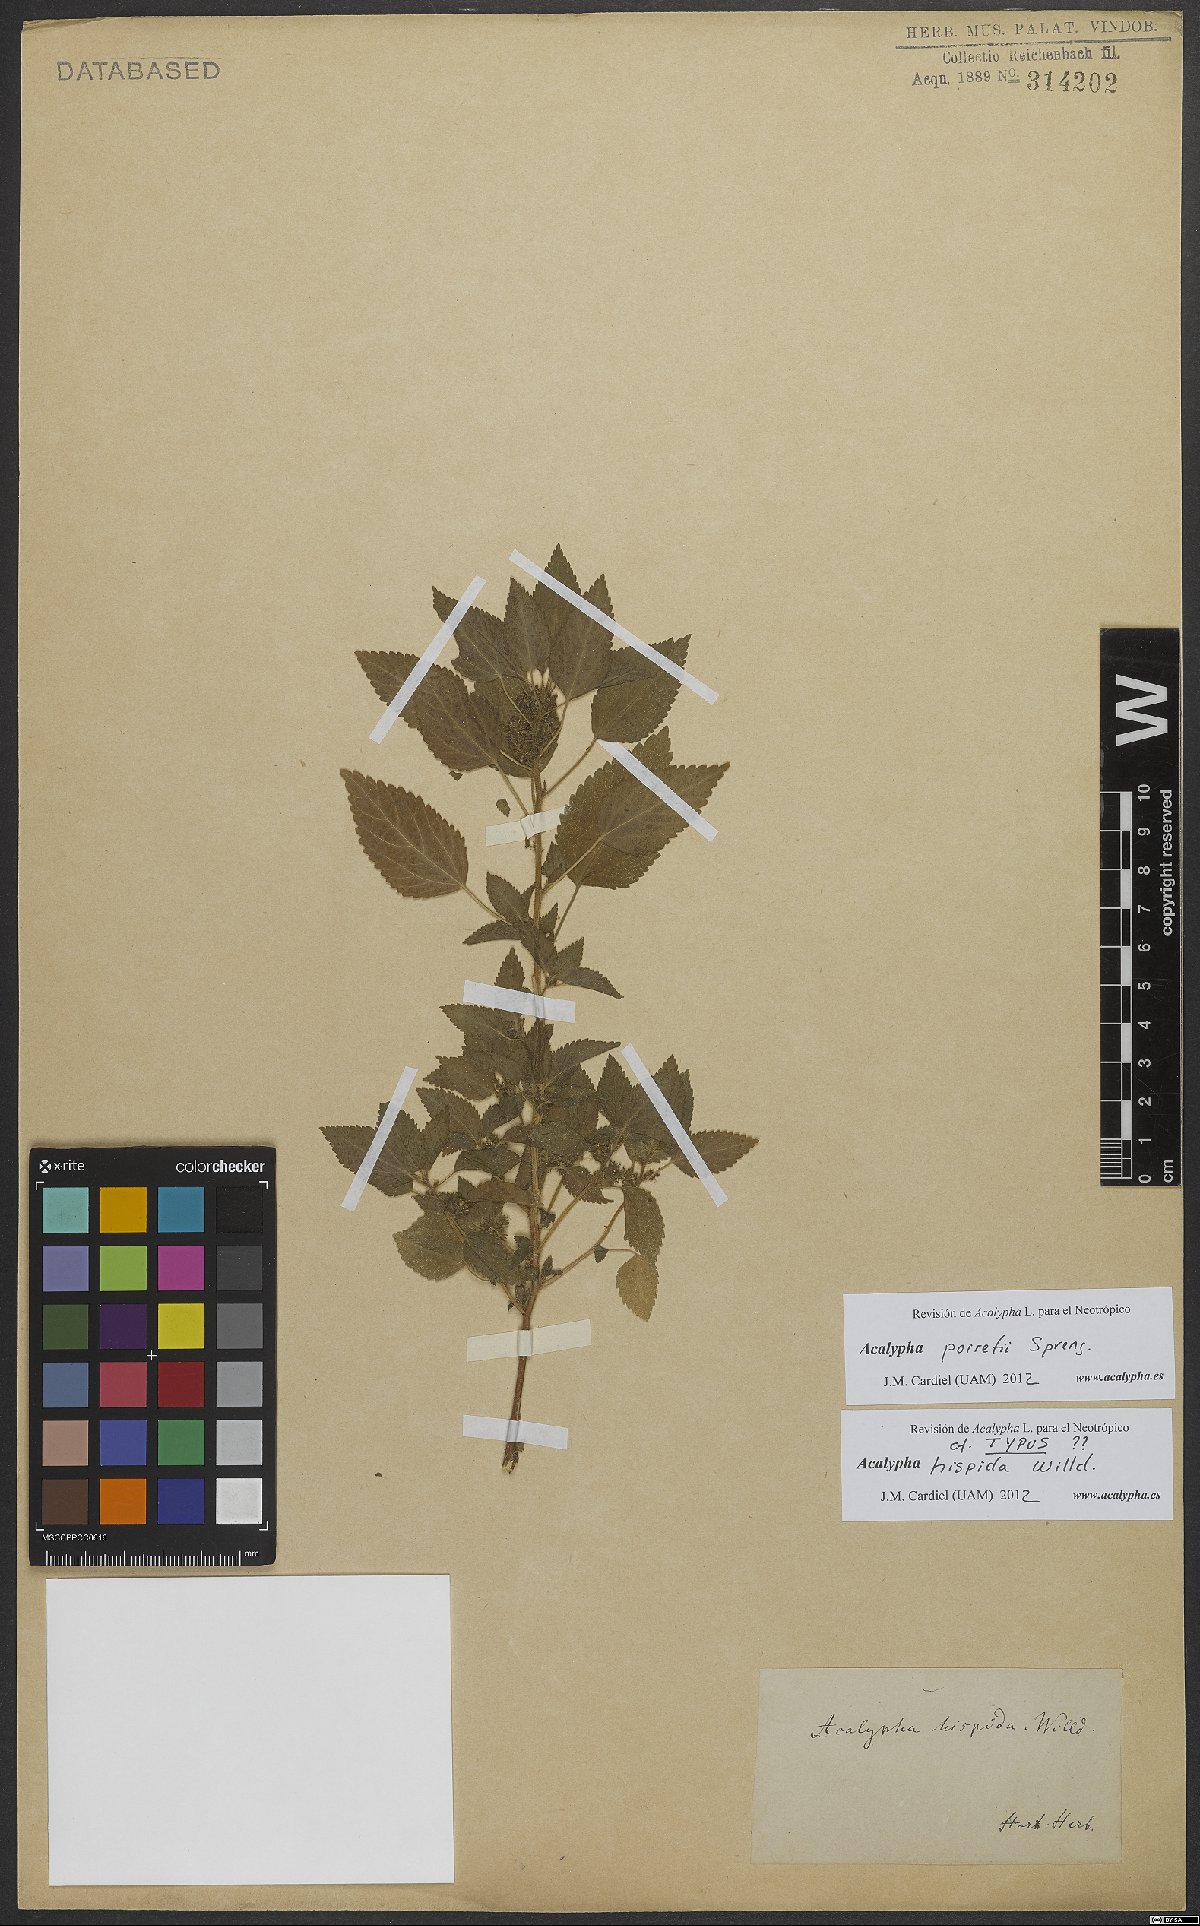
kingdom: Plantae
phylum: Tracheophyta
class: Magnoliopsida
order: Malpighiales
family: Euphorbiaceae
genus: Acalypha
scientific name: Acalypha poiretii
